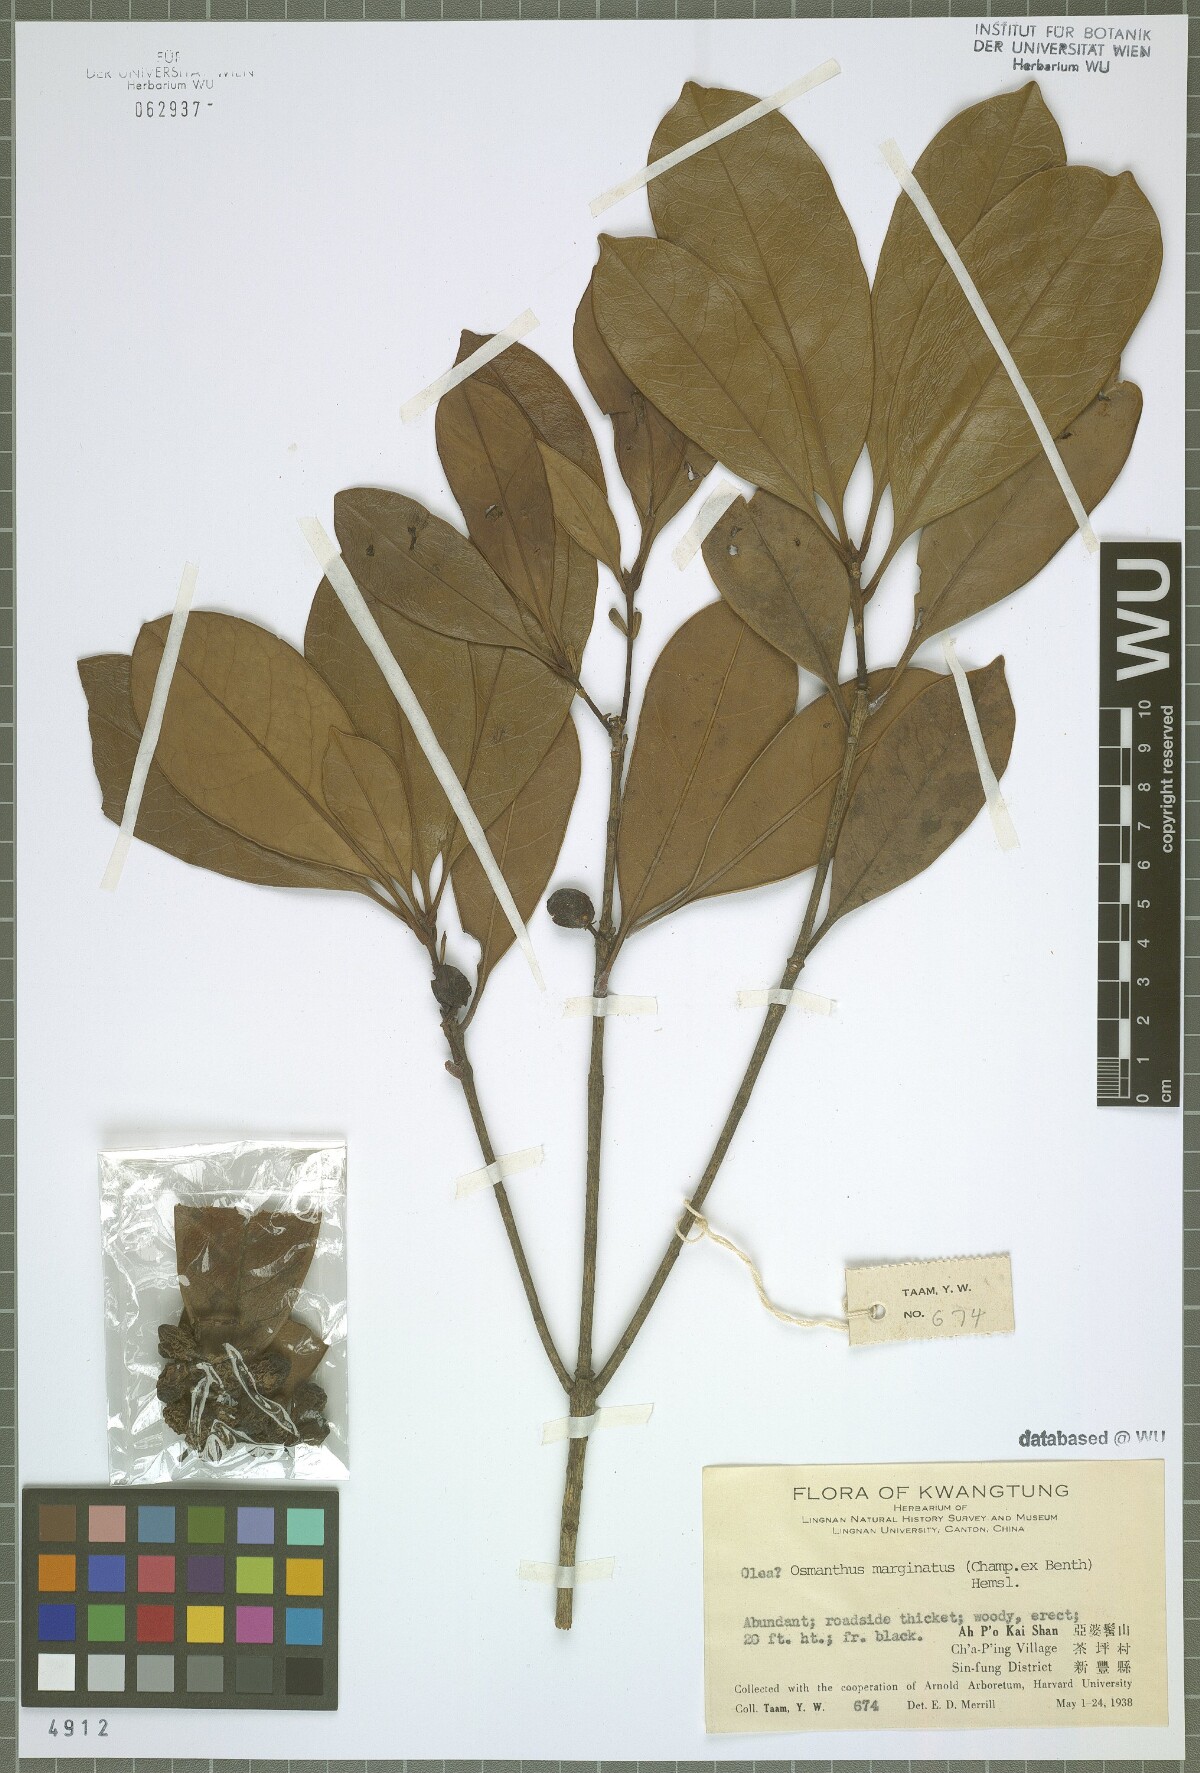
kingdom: Plantae
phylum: Tracheophyta
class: Magnoliopsida
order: Lamiales
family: Oleaceae
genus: Chengiodendron
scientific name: Chengiodendron marginatum
